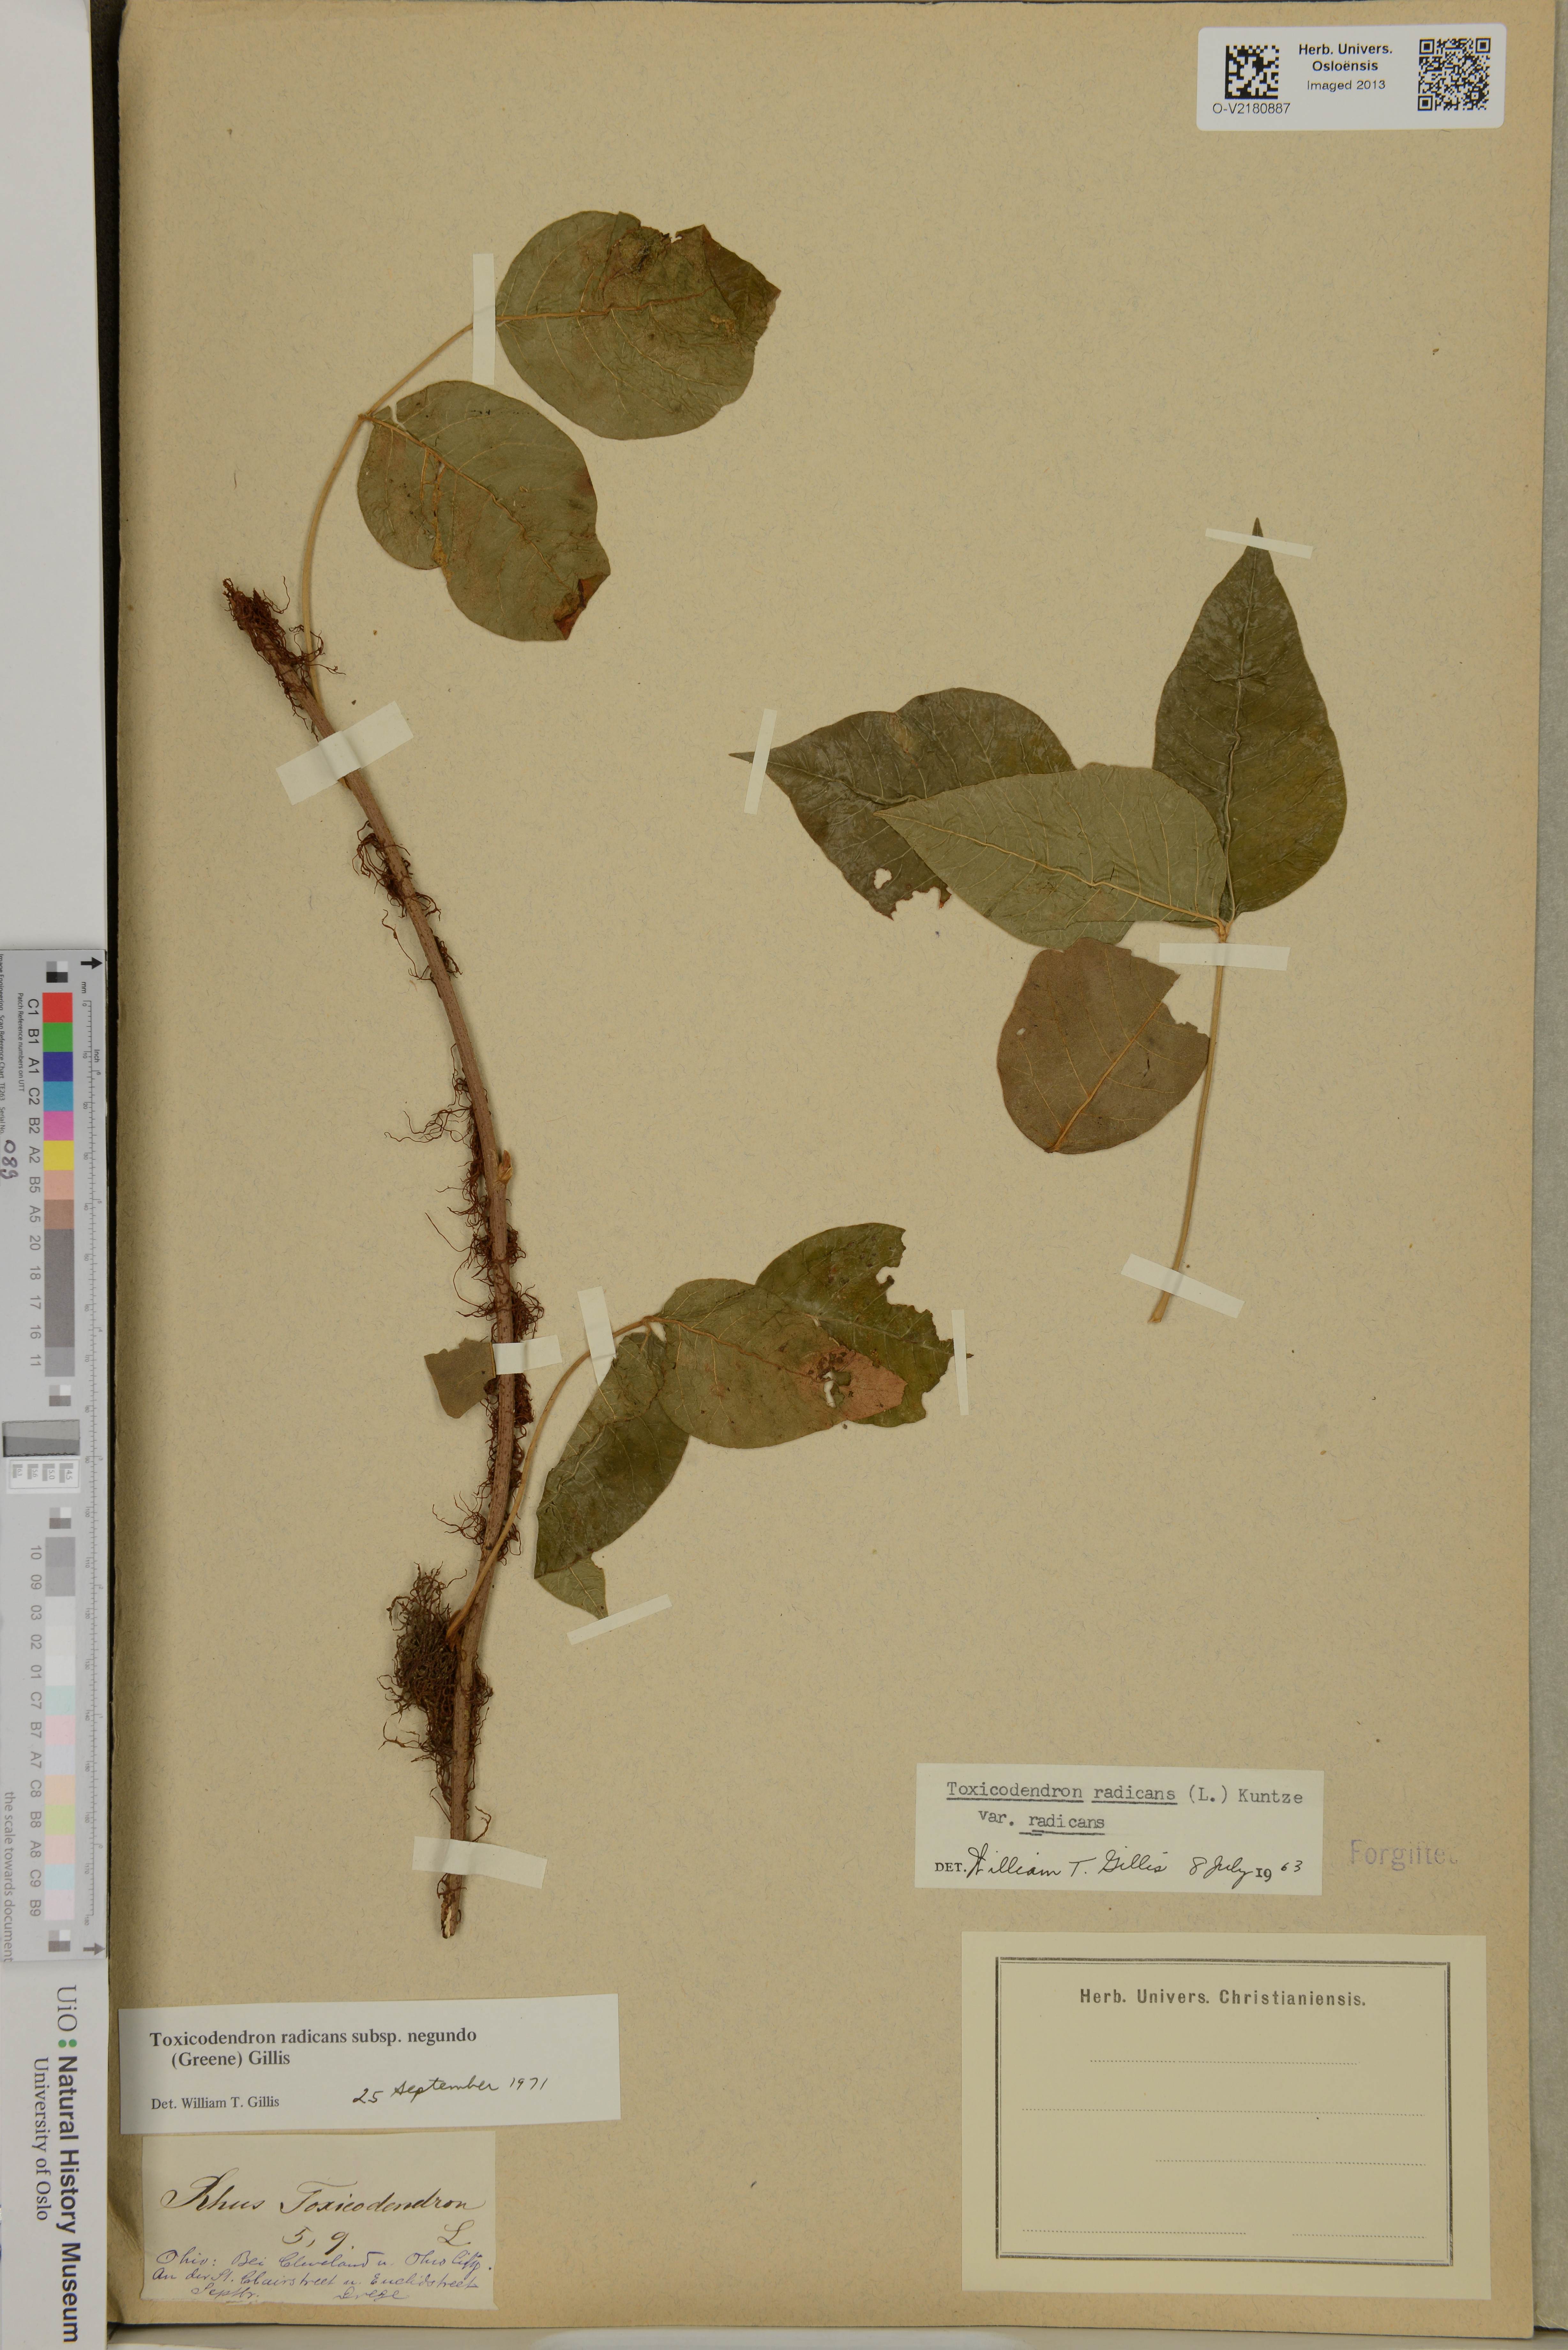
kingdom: Plantae
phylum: Tracheophyta
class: Magnoliopsida
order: Sapindales
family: Anacardiaceae
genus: Toxicodendron
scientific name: Toxicodendron radicans
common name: Poison ivy
